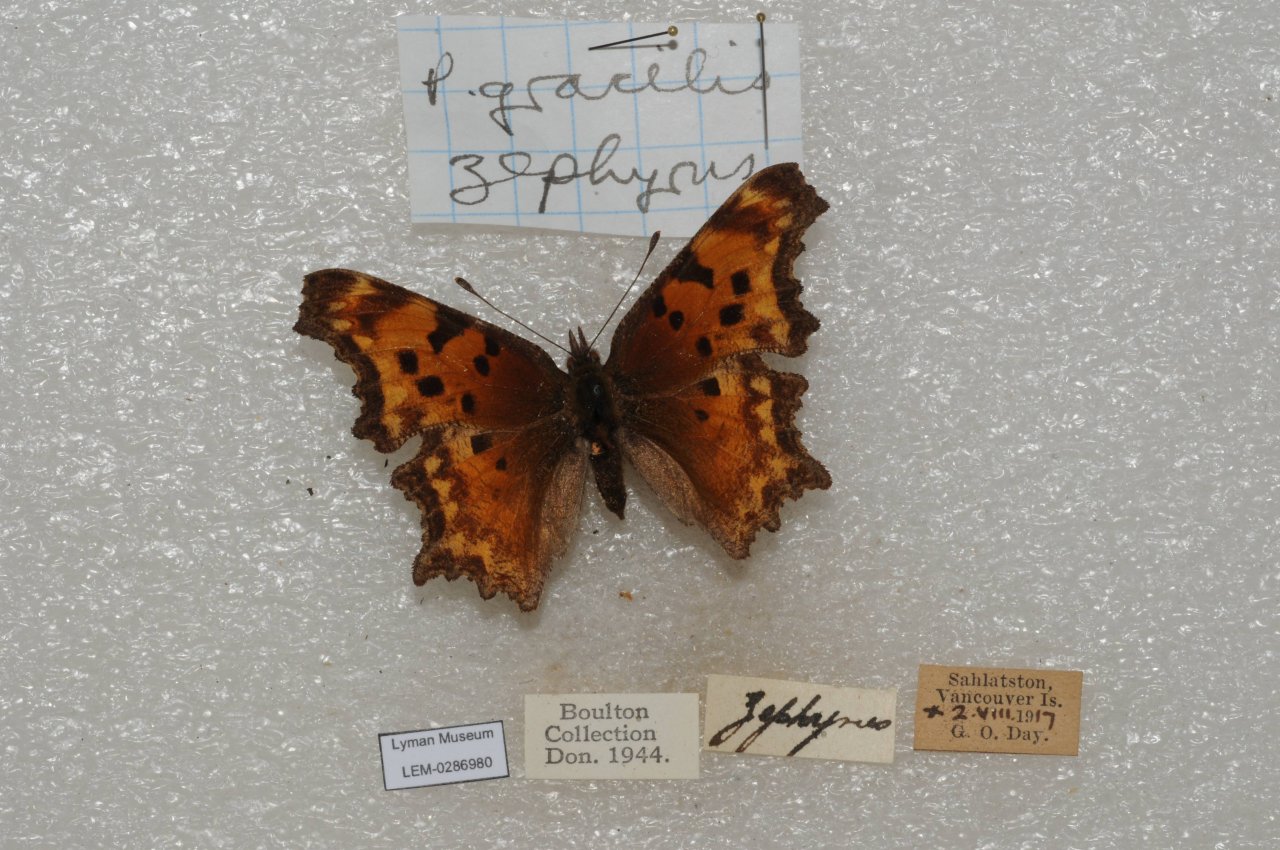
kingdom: Animalia
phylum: Arthropoda
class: Insecta
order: Lepidoptera
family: Nymphalidae
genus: Polygonia
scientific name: Polygonia gracilis
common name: Hoary Comma
